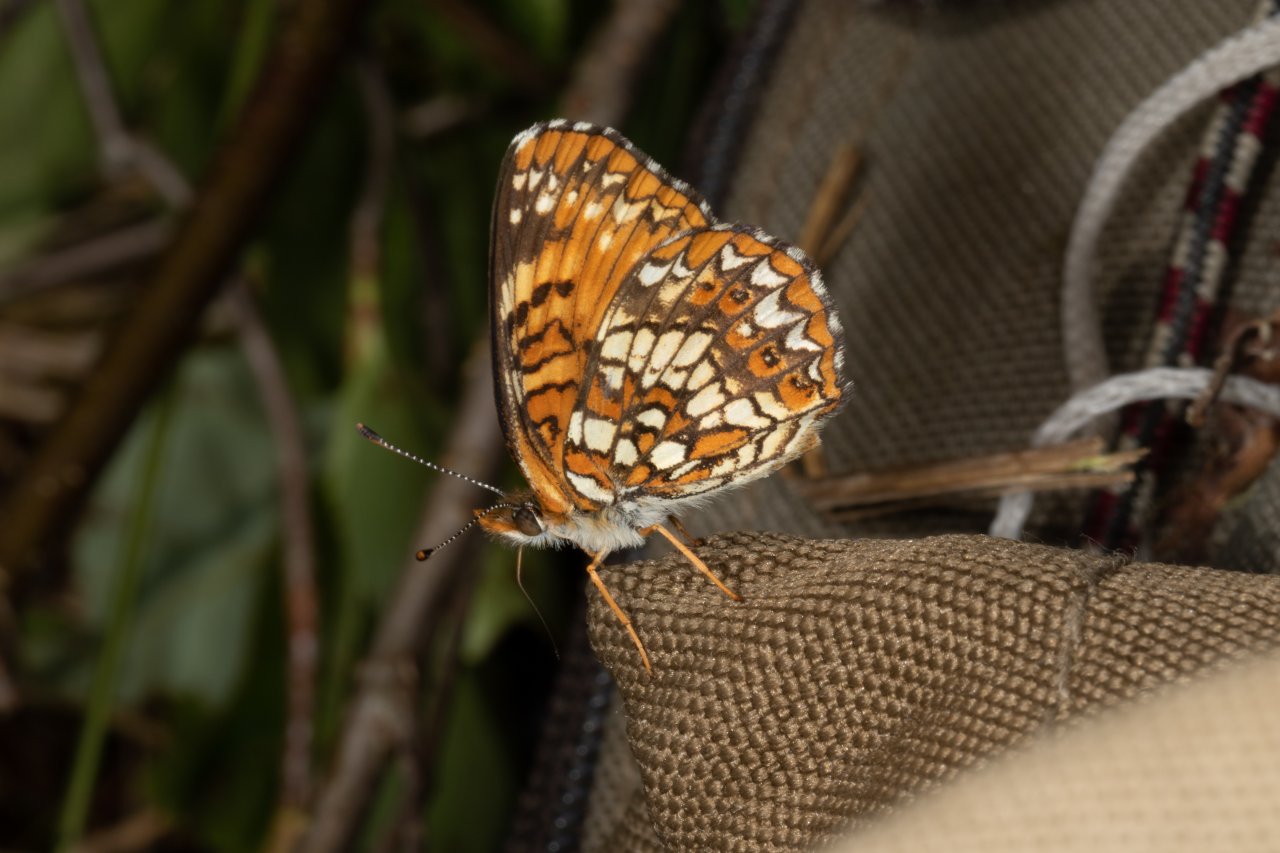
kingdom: Animalia
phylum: Arthropoda
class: Insecta
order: Lepidoptera
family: Nymphalidae
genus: Chlosyne
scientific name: Chlosyne harrisii
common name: Harris's Checkerspot
